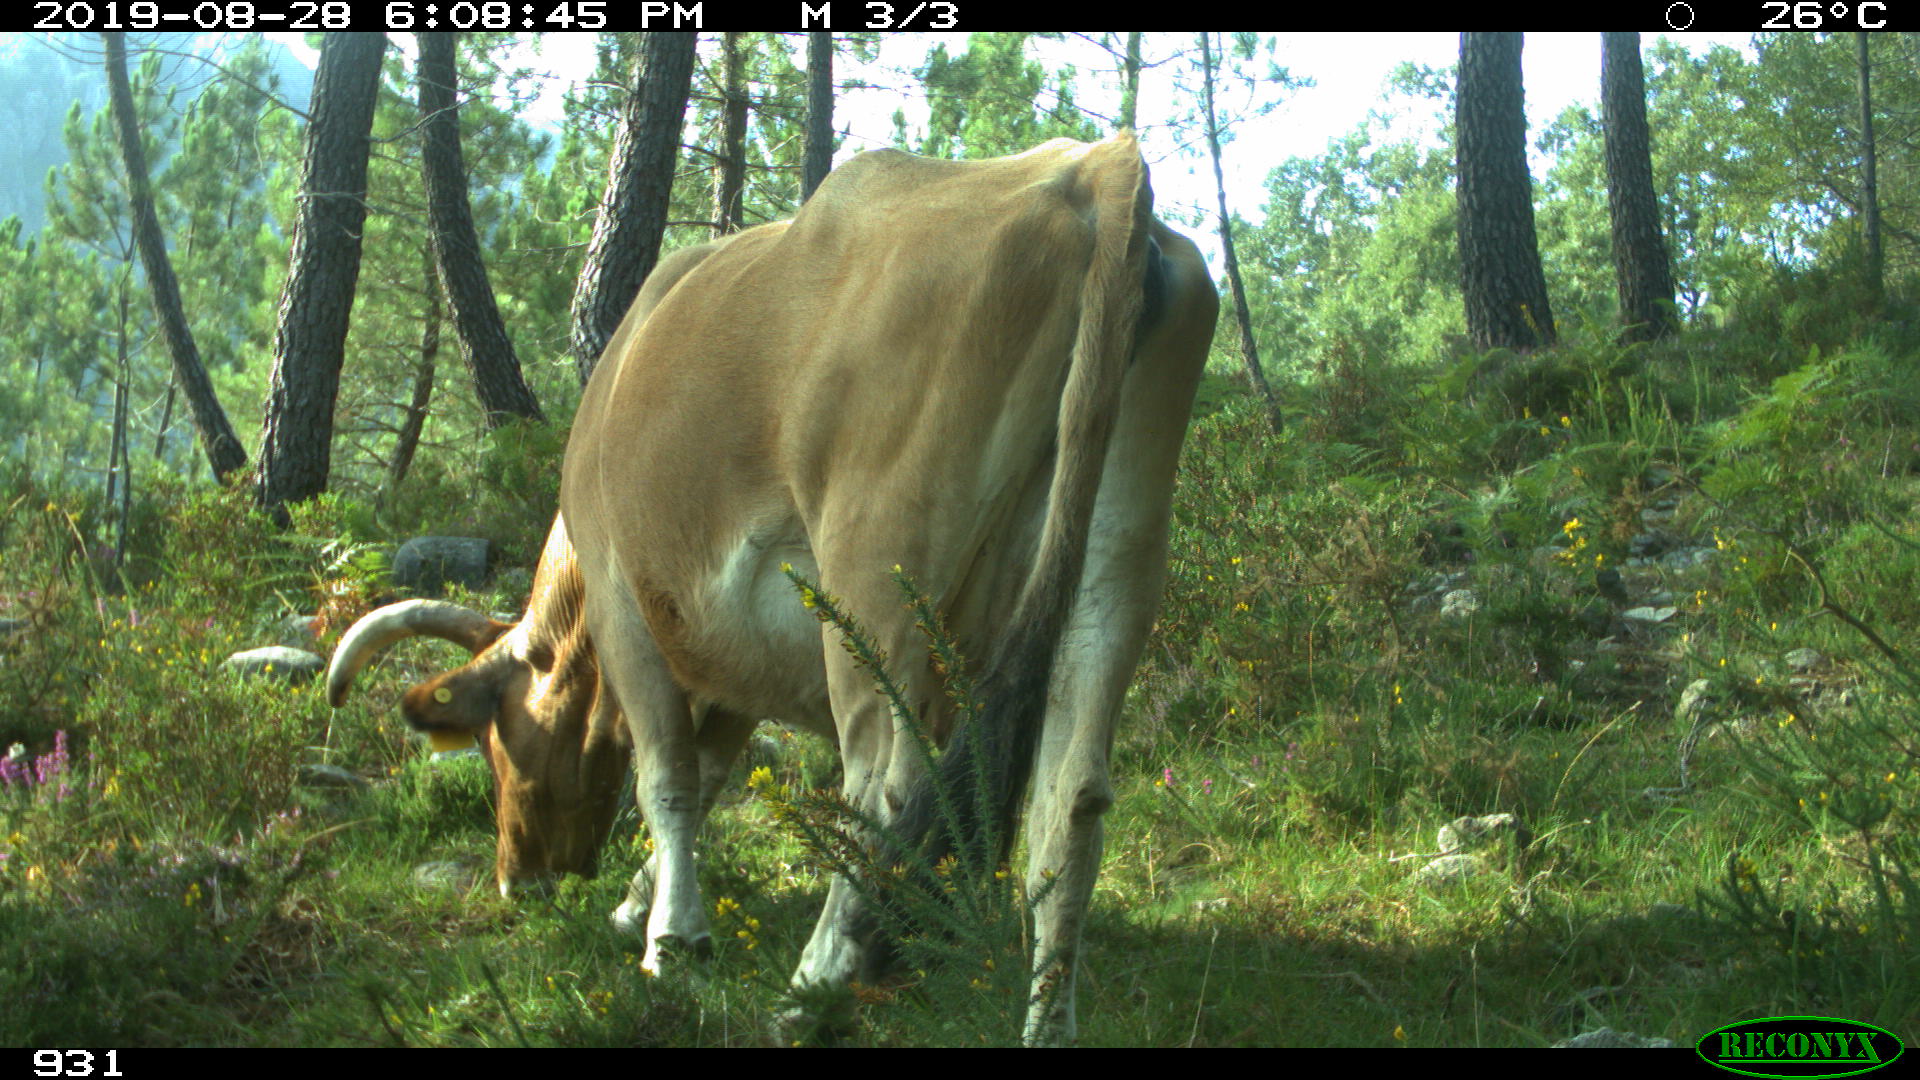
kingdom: Animalia
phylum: Chordata
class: Mammalia
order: Artiodactyla
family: Bovidae
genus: Bos
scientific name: Bos taurus
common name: Domesticated cattle
